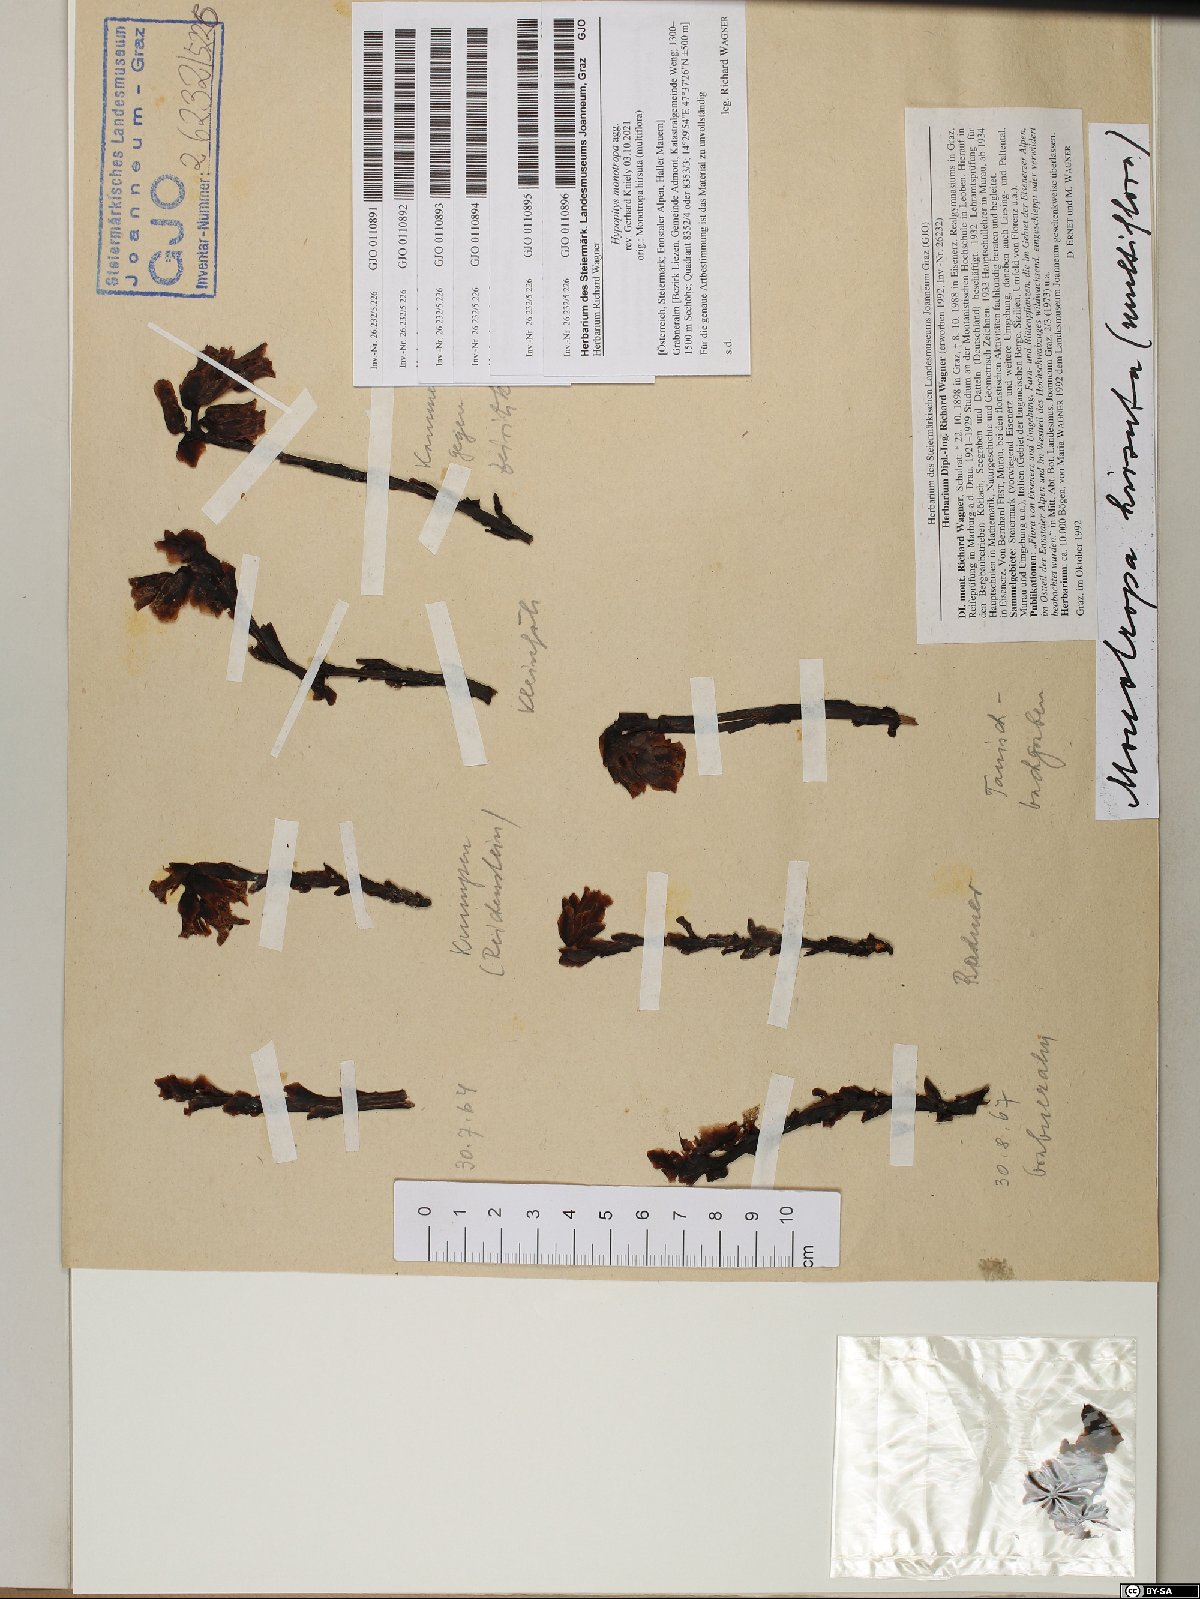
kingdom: Plantae
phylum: Tracheophyta
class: Magnoliopsida
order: Ericales
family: Ericaceae
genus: Hypopitys
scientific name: Hypopitys monotropa
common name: Yellow bird's-nest
